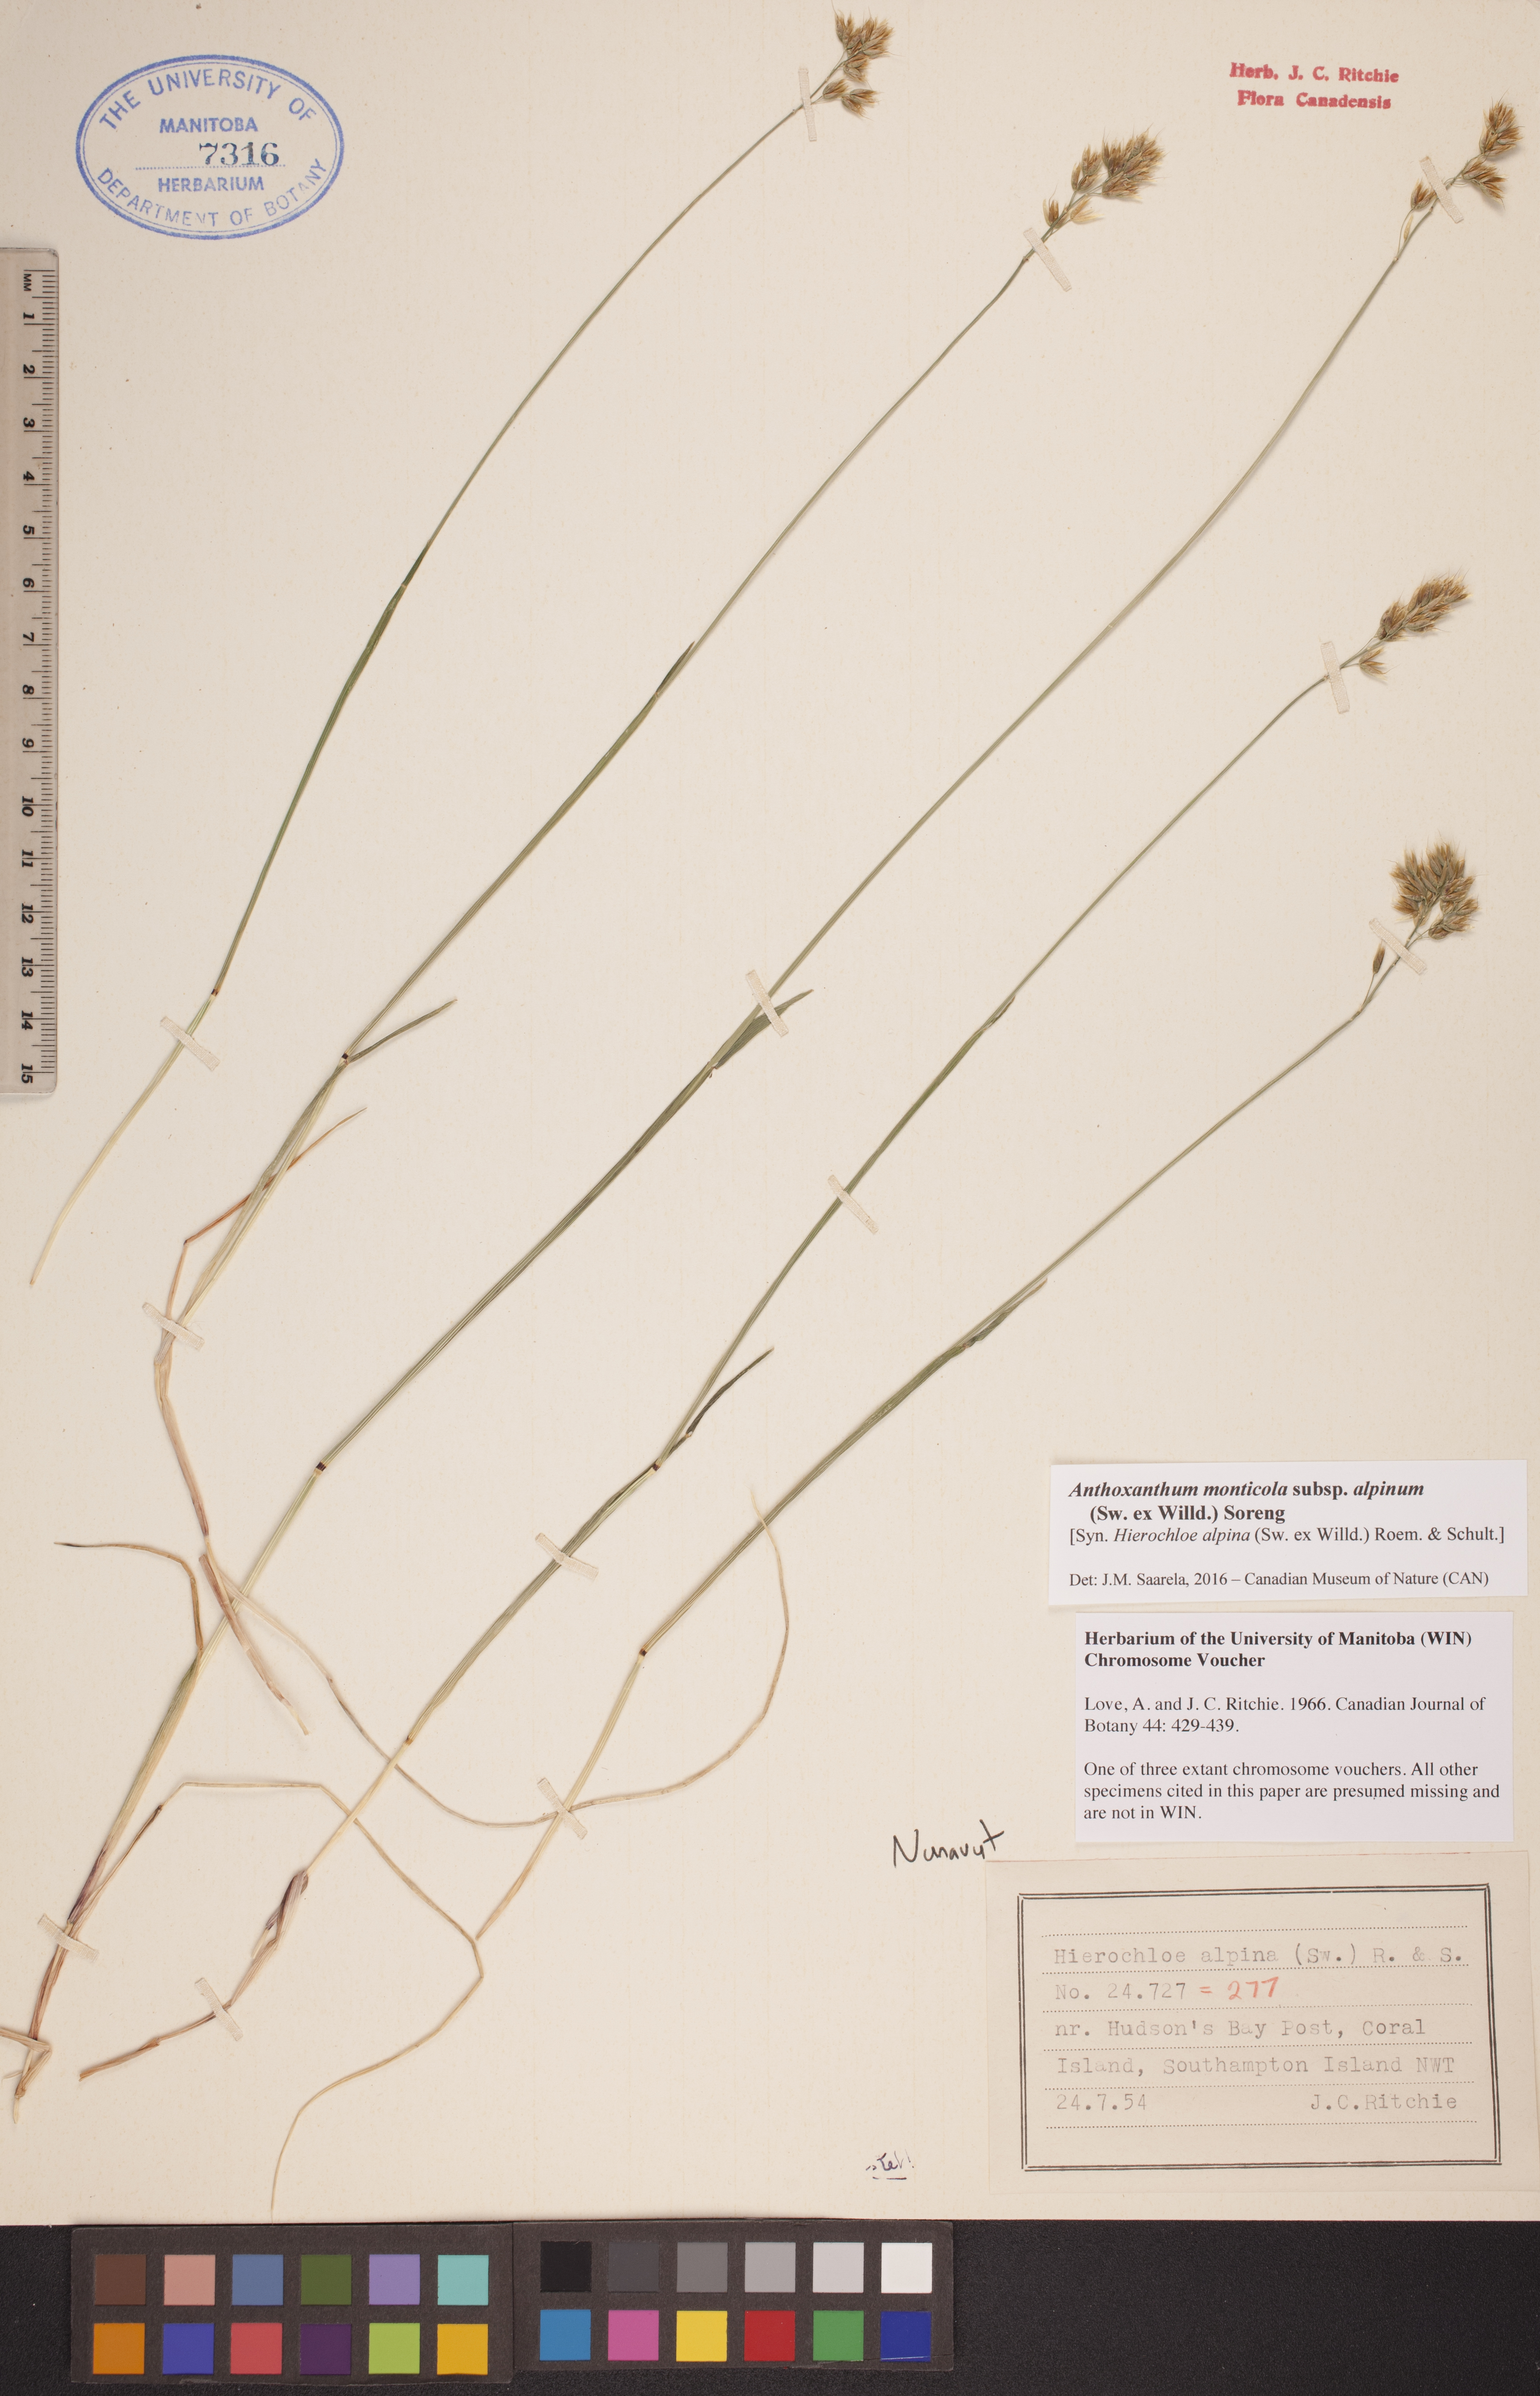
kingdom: Plantae
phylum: Tracheophyta
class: Liliopsida
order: Poales
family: Poaceae
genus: Anthoxanthum
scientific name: Anthoxanthum monticola
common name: Alpine sweetgrass
